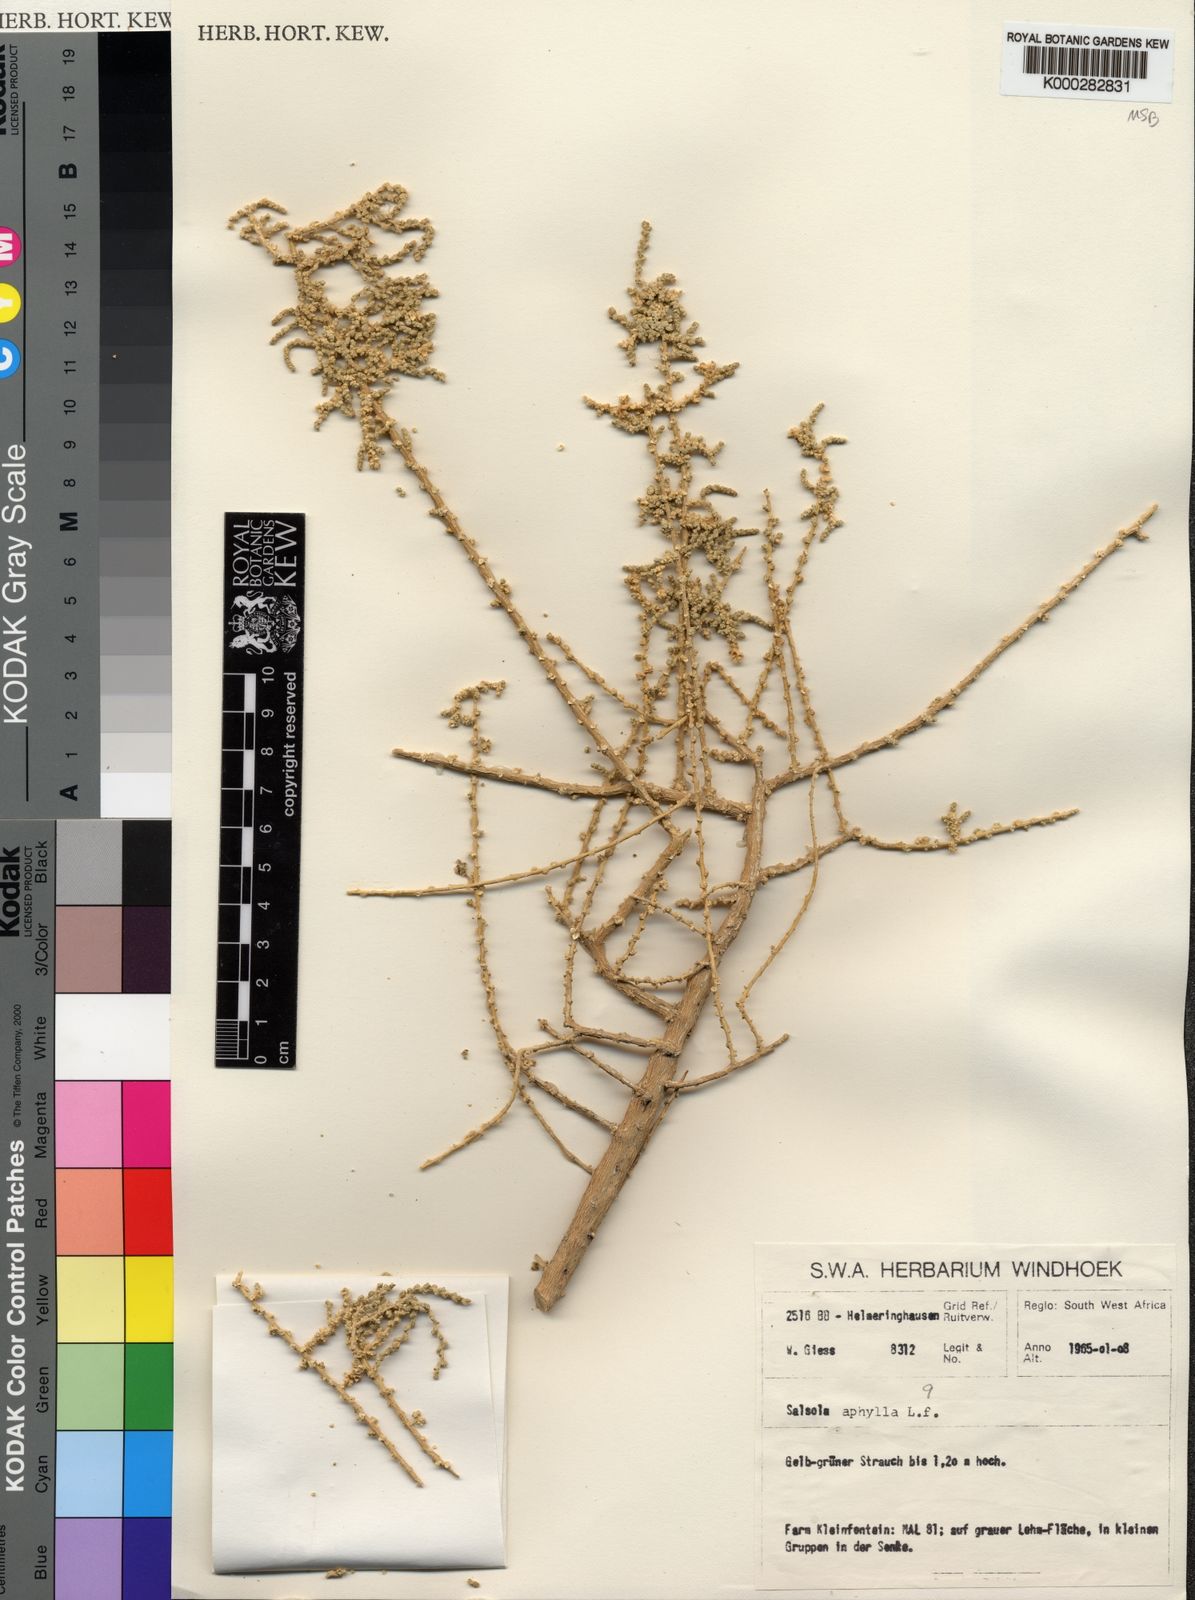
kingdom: Plantae
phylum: Tracheophyta
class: Magnoliopsida
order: Caryophyllales
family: Amaranthaceae
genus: Caroxylon
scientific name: Caroxylon aphyllum
